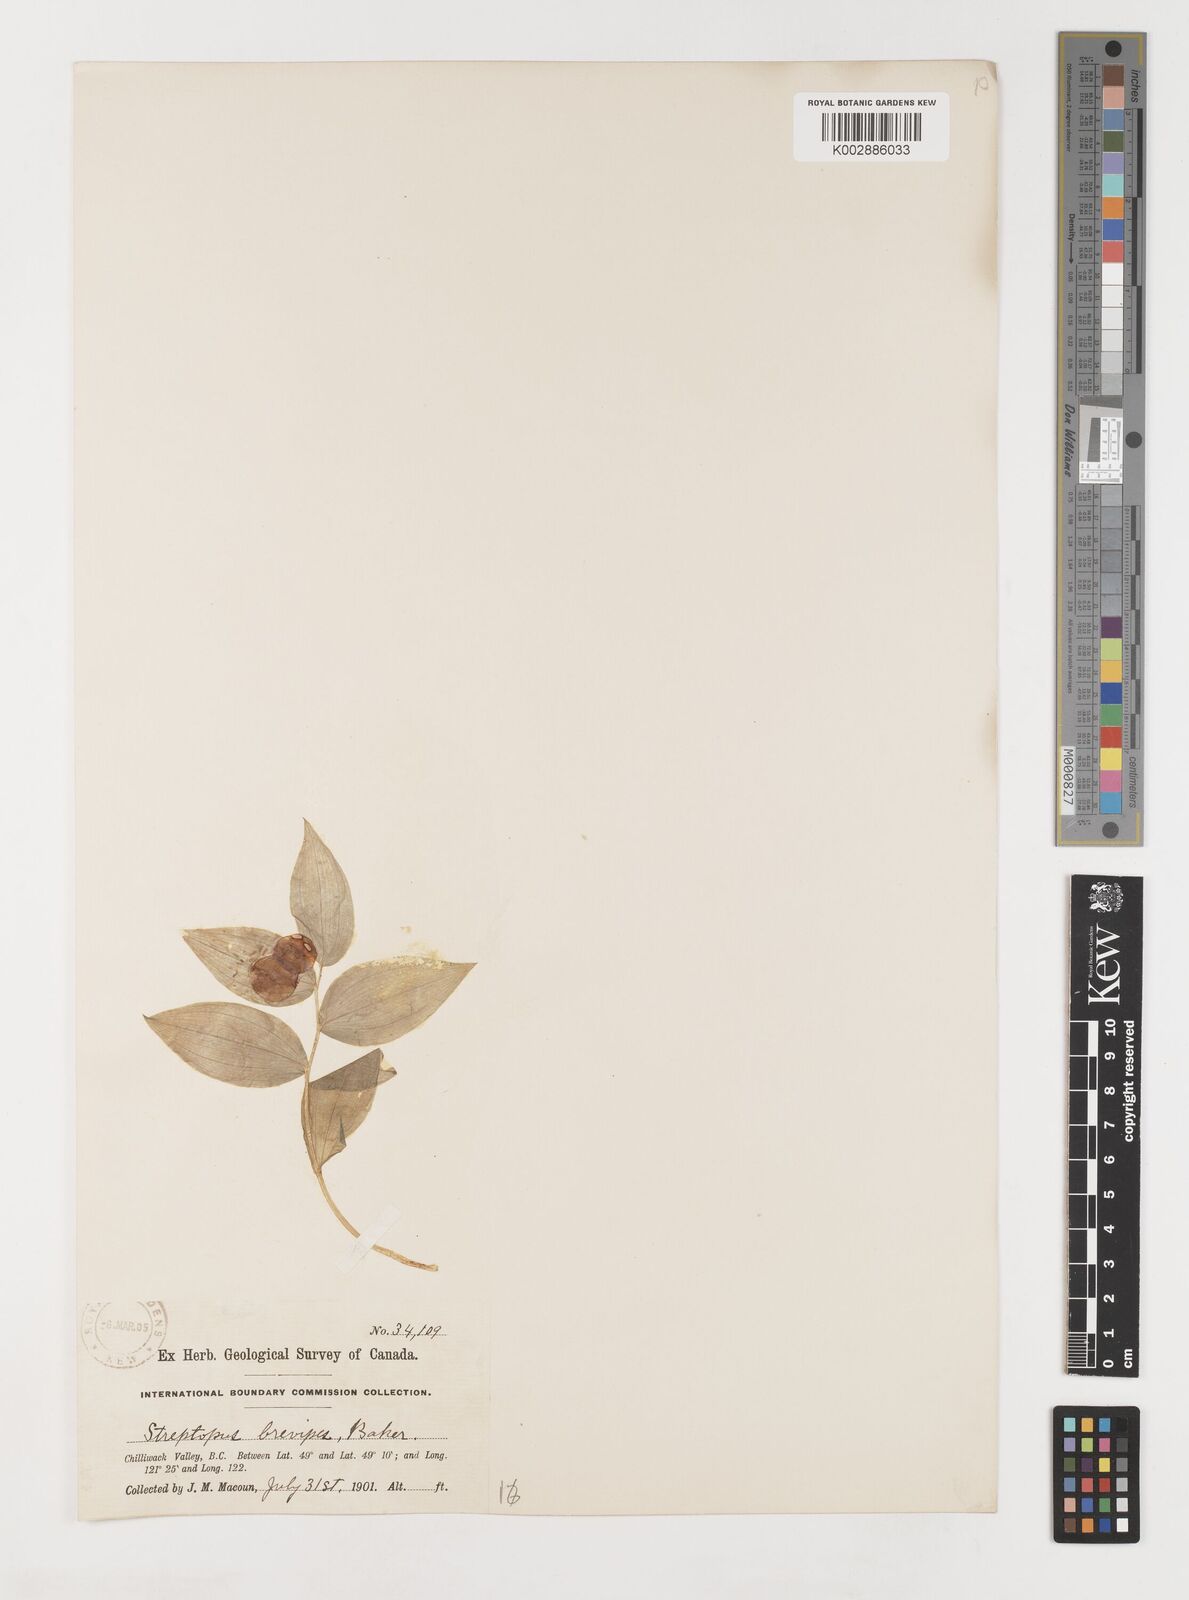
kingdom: Plantae
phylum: Tracheophyta
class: Liliopsida
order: Liliales
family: Liliaceae
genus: Streptopus
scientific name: Streptopus streptopoides
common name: Small twisted-stalk
